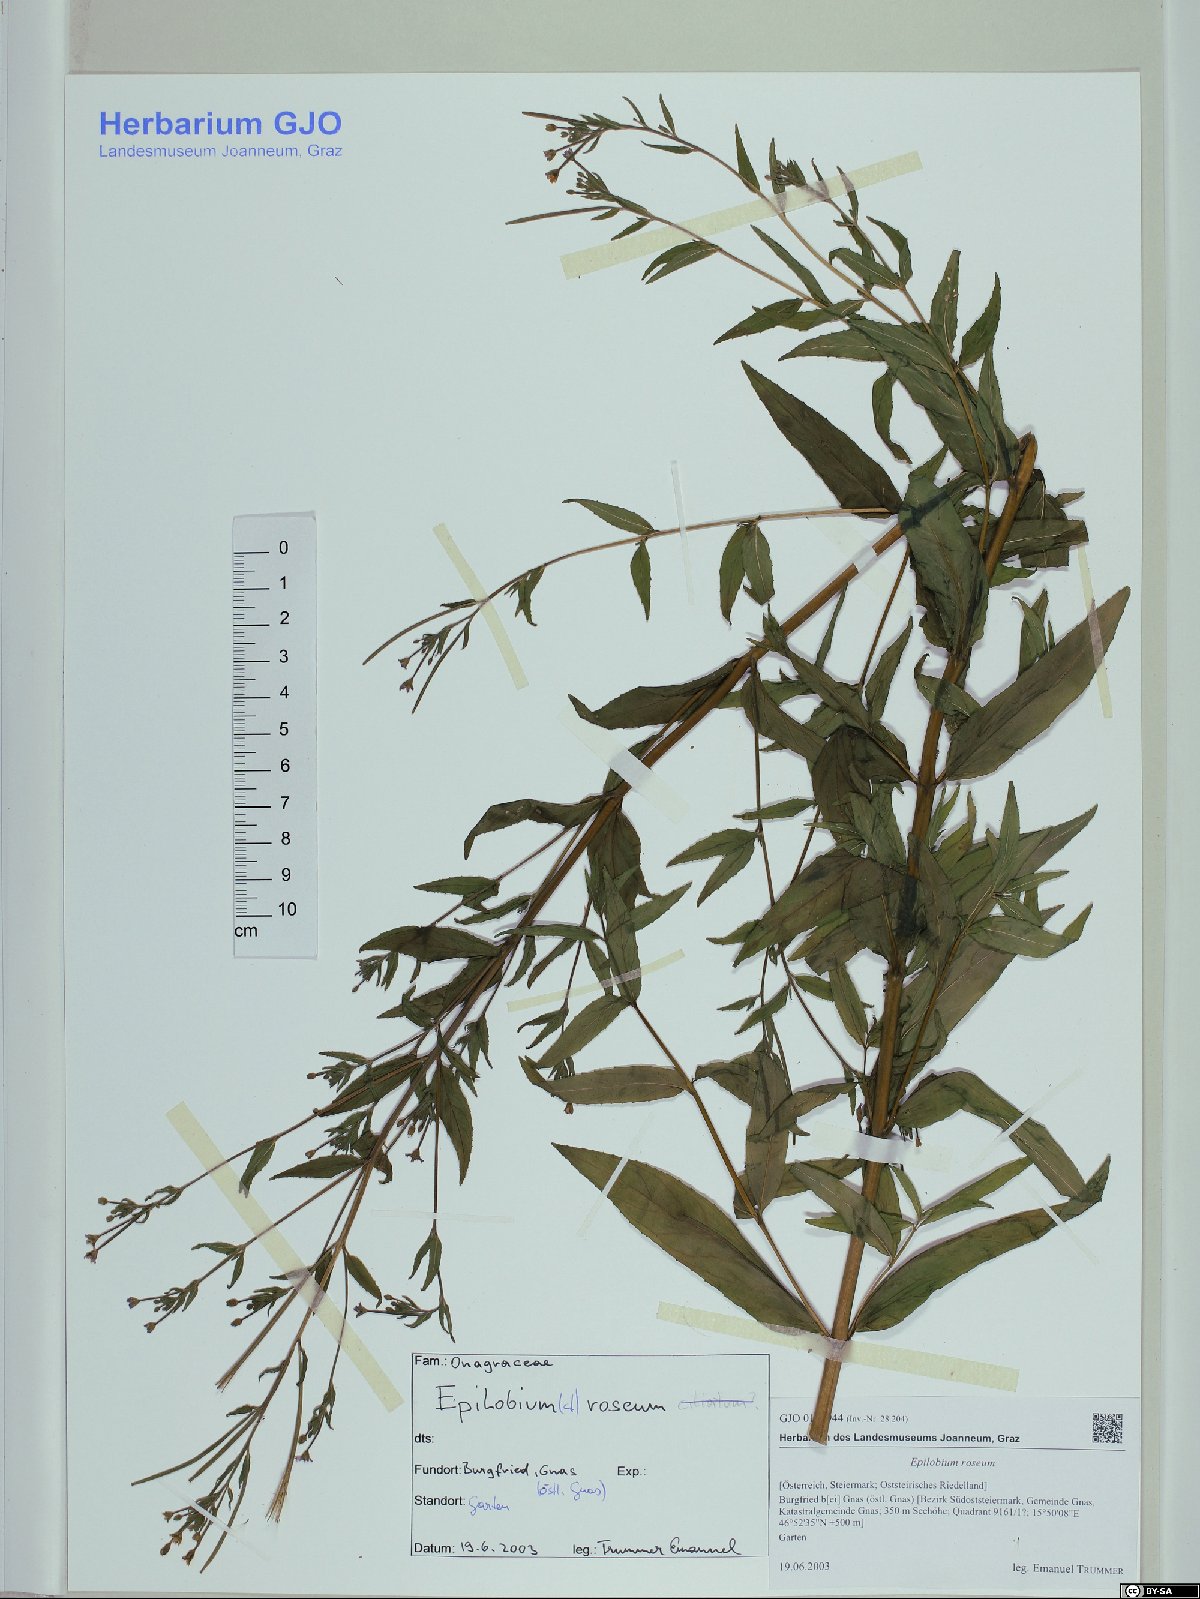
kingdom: Plantae
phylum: Tracheophyta
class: Magnoliopsida
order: Myrtales
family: Onagraceae
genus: Epilobium
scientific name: Epilobium roseum
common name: Pale willowherb
